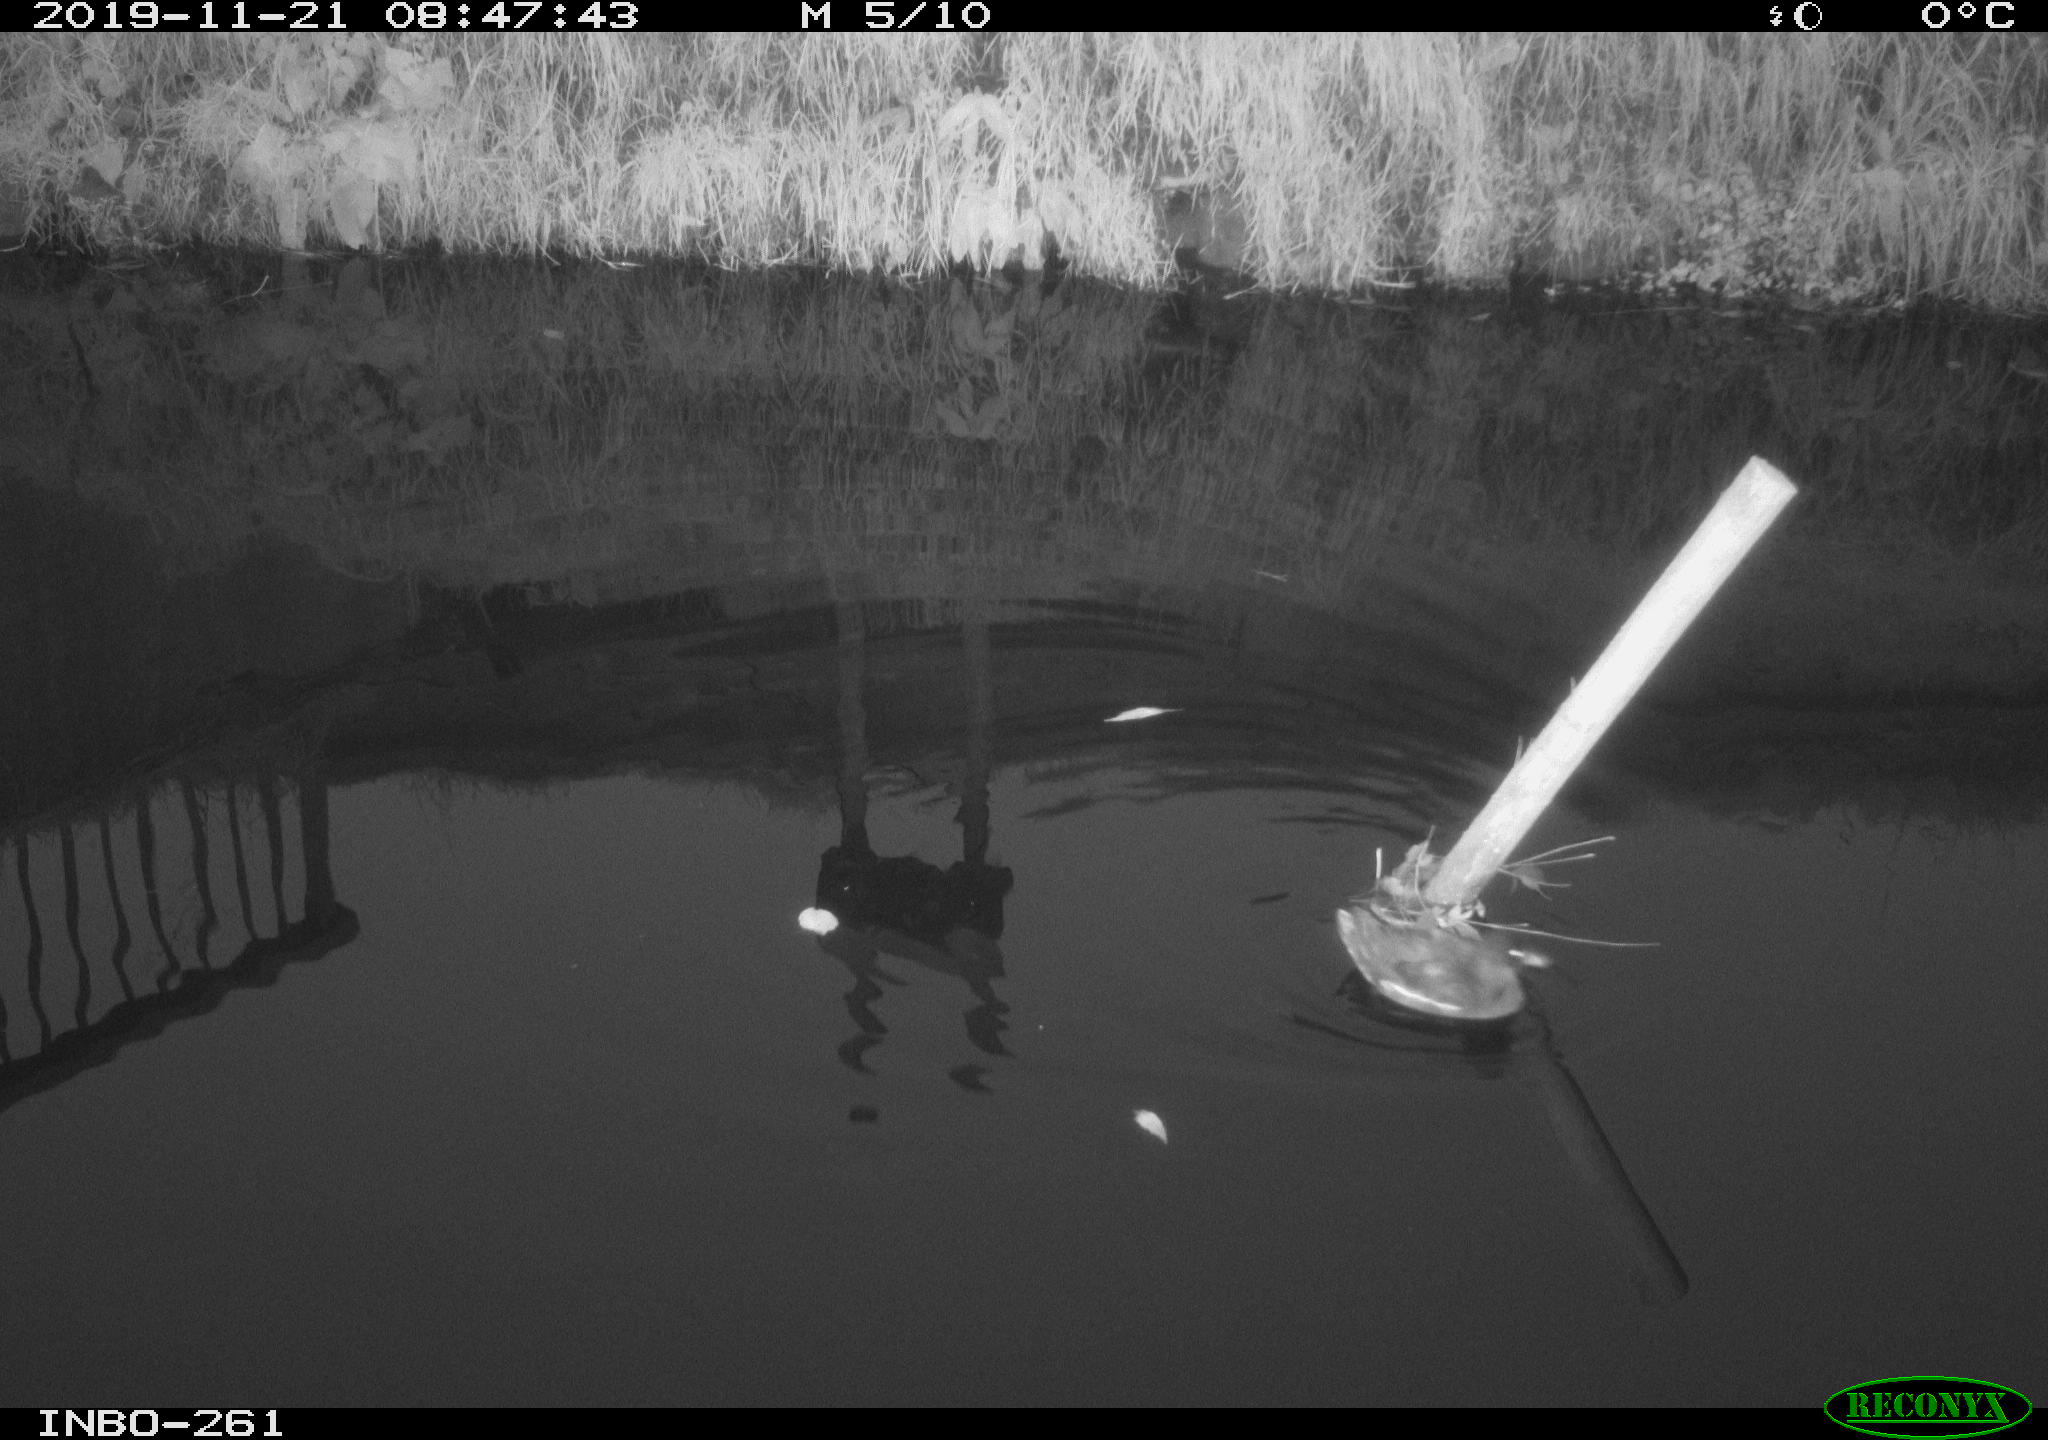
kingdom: Animalia
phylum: Chordata
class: Aves
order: Gruiformes
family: Rallidae
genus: Gallinula
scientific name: Gallinula chloropus
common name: Common moorhen
